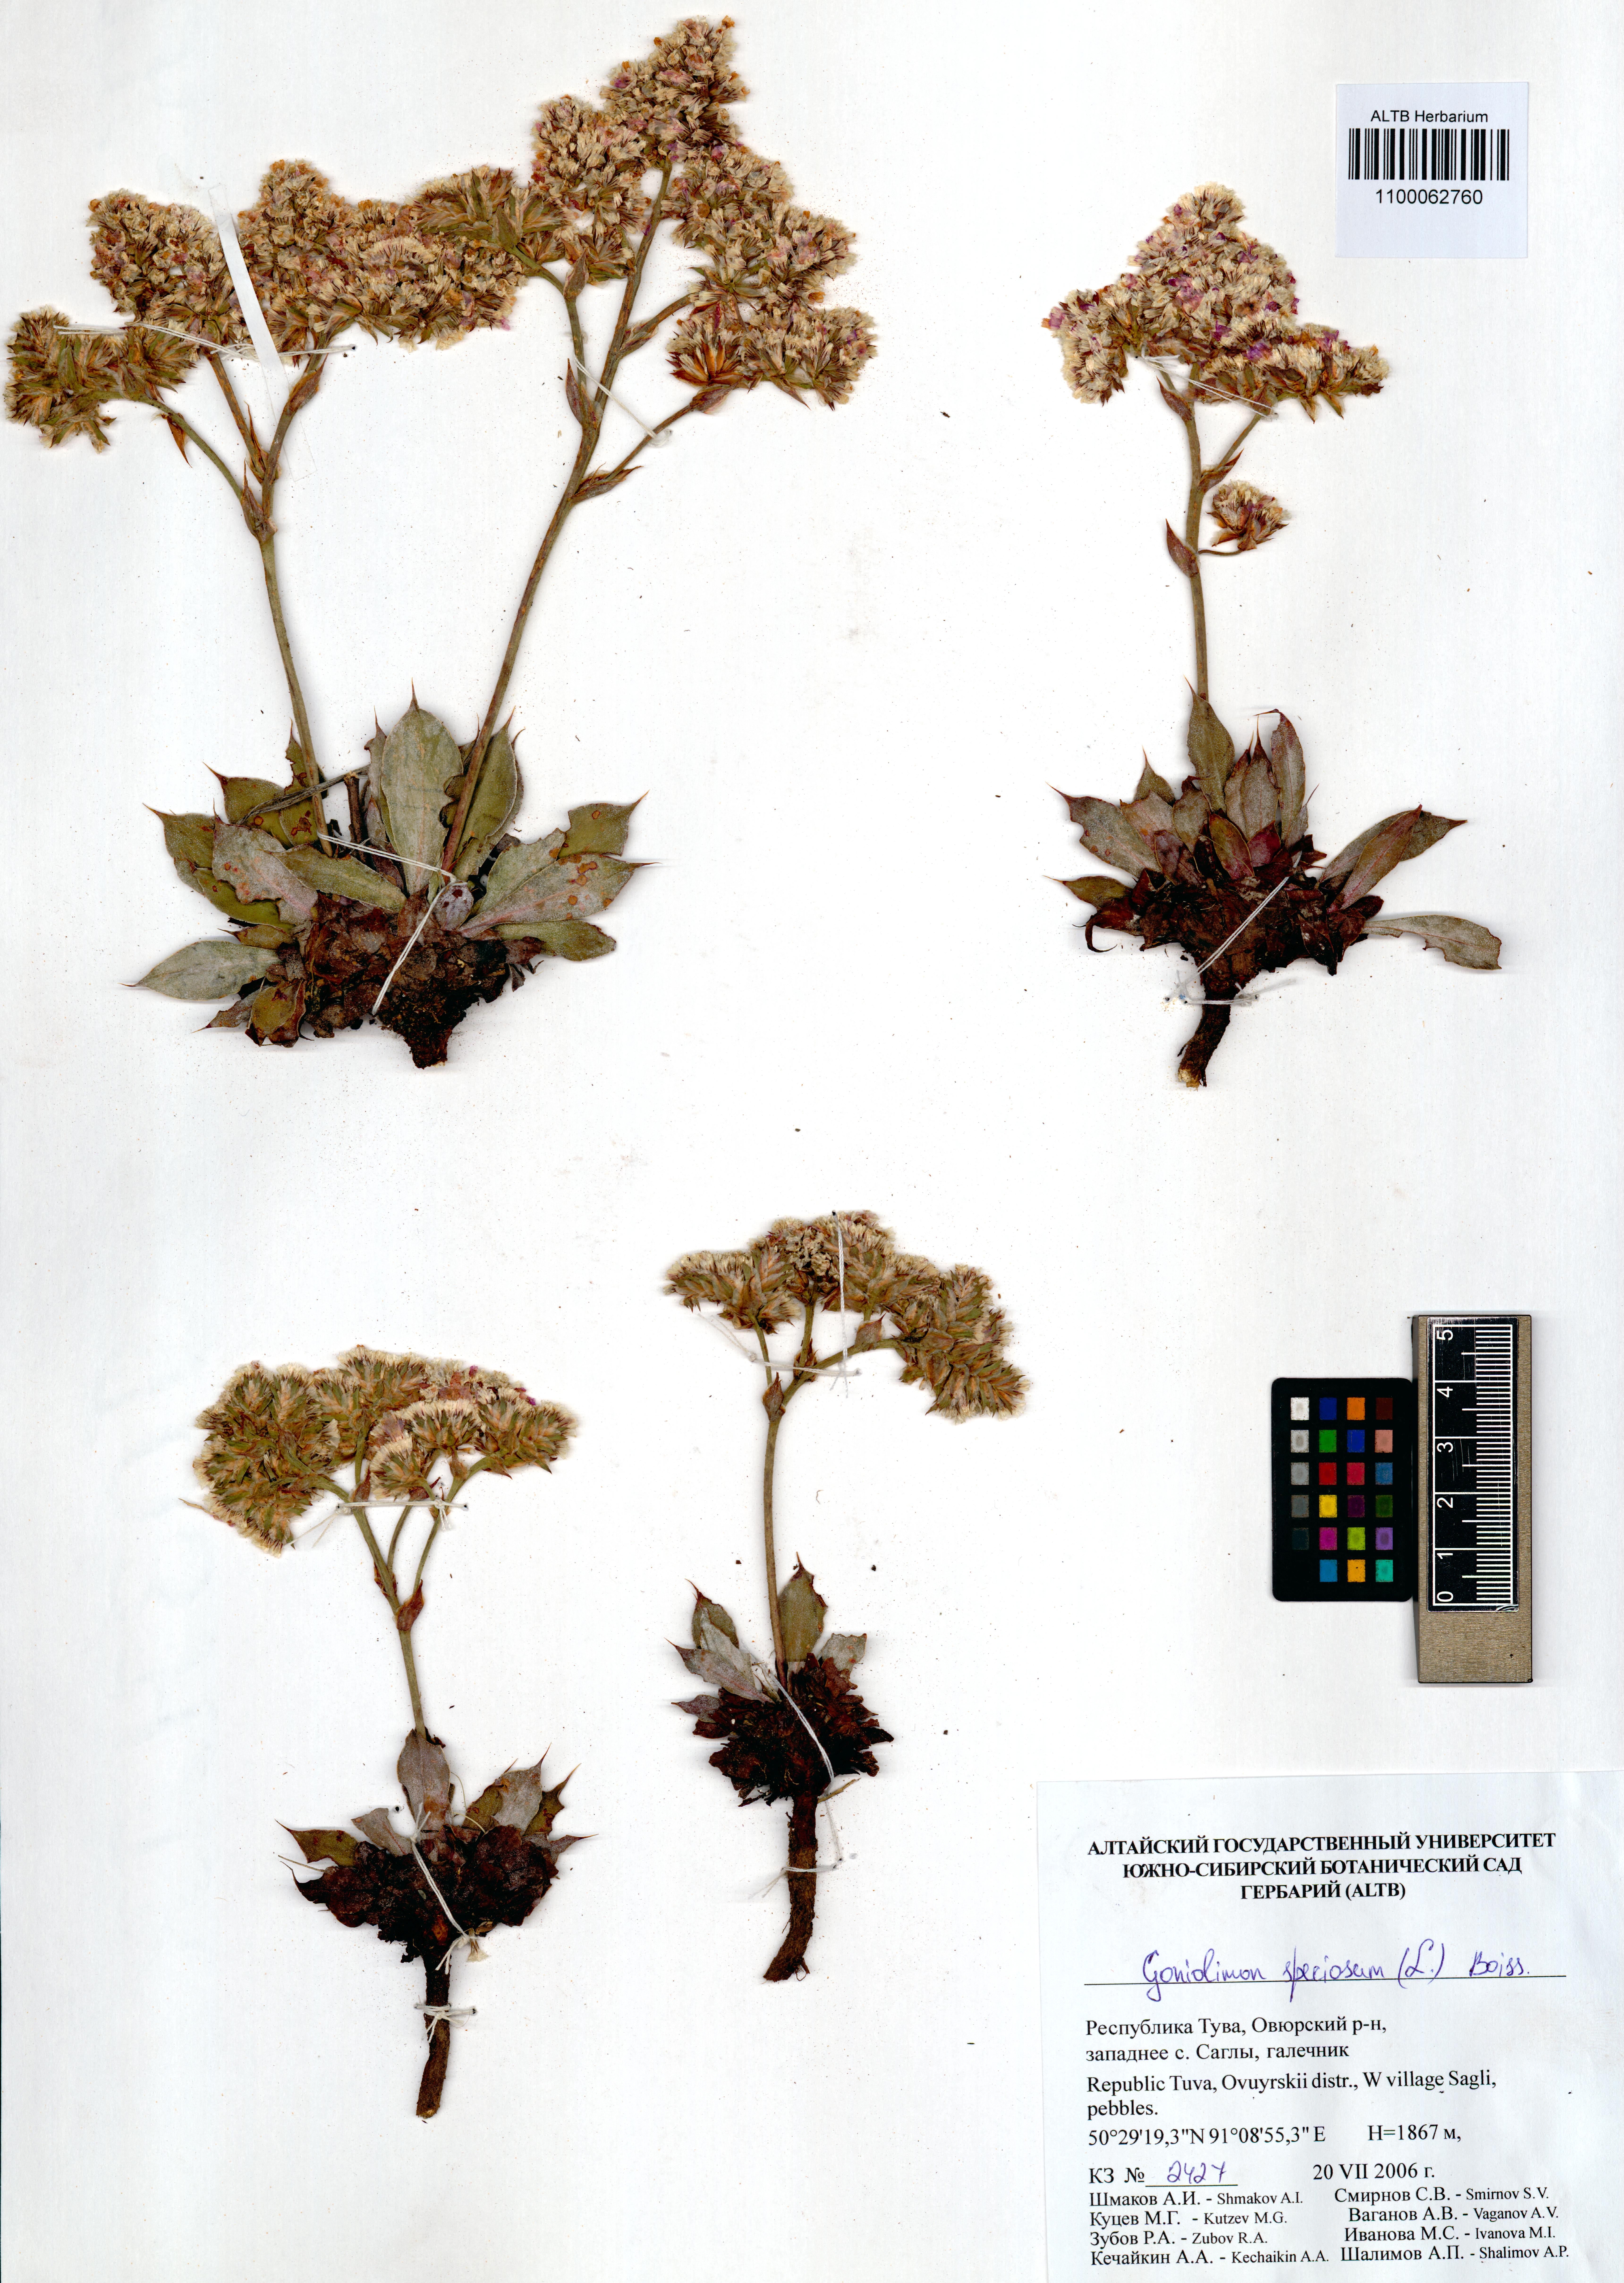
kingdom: Plantae
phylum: Tracheophyta
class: Magnoliopsida
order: Caryophyllales
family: Plumbaginaceae
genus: Goniolimon
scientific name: Goniolimon speciosum
